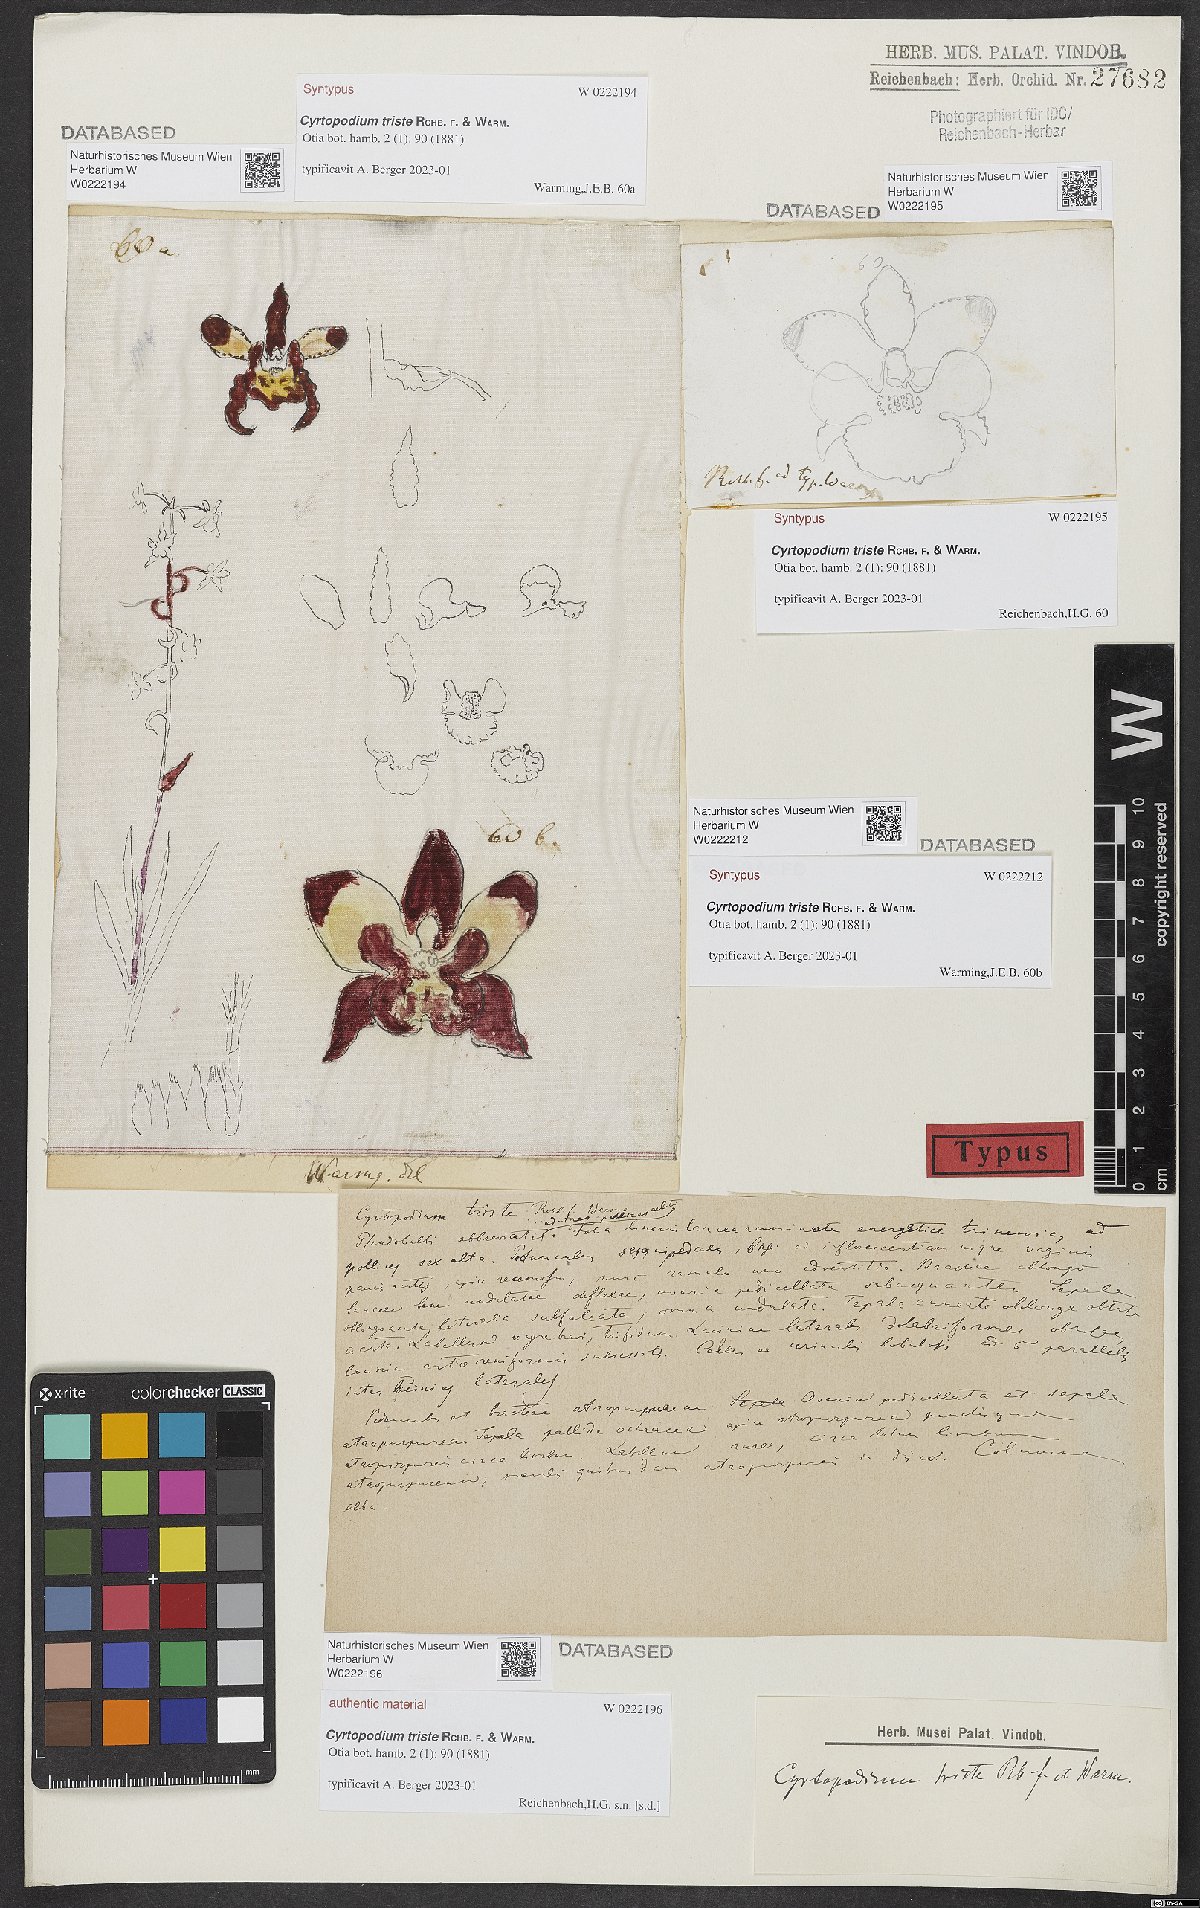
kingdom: Plantae
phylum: Tracheophyta
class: Liliopsida
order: Asparagales
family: Orchidaceae
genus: Cyrtopodium
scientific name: Cyrtopodium triste
